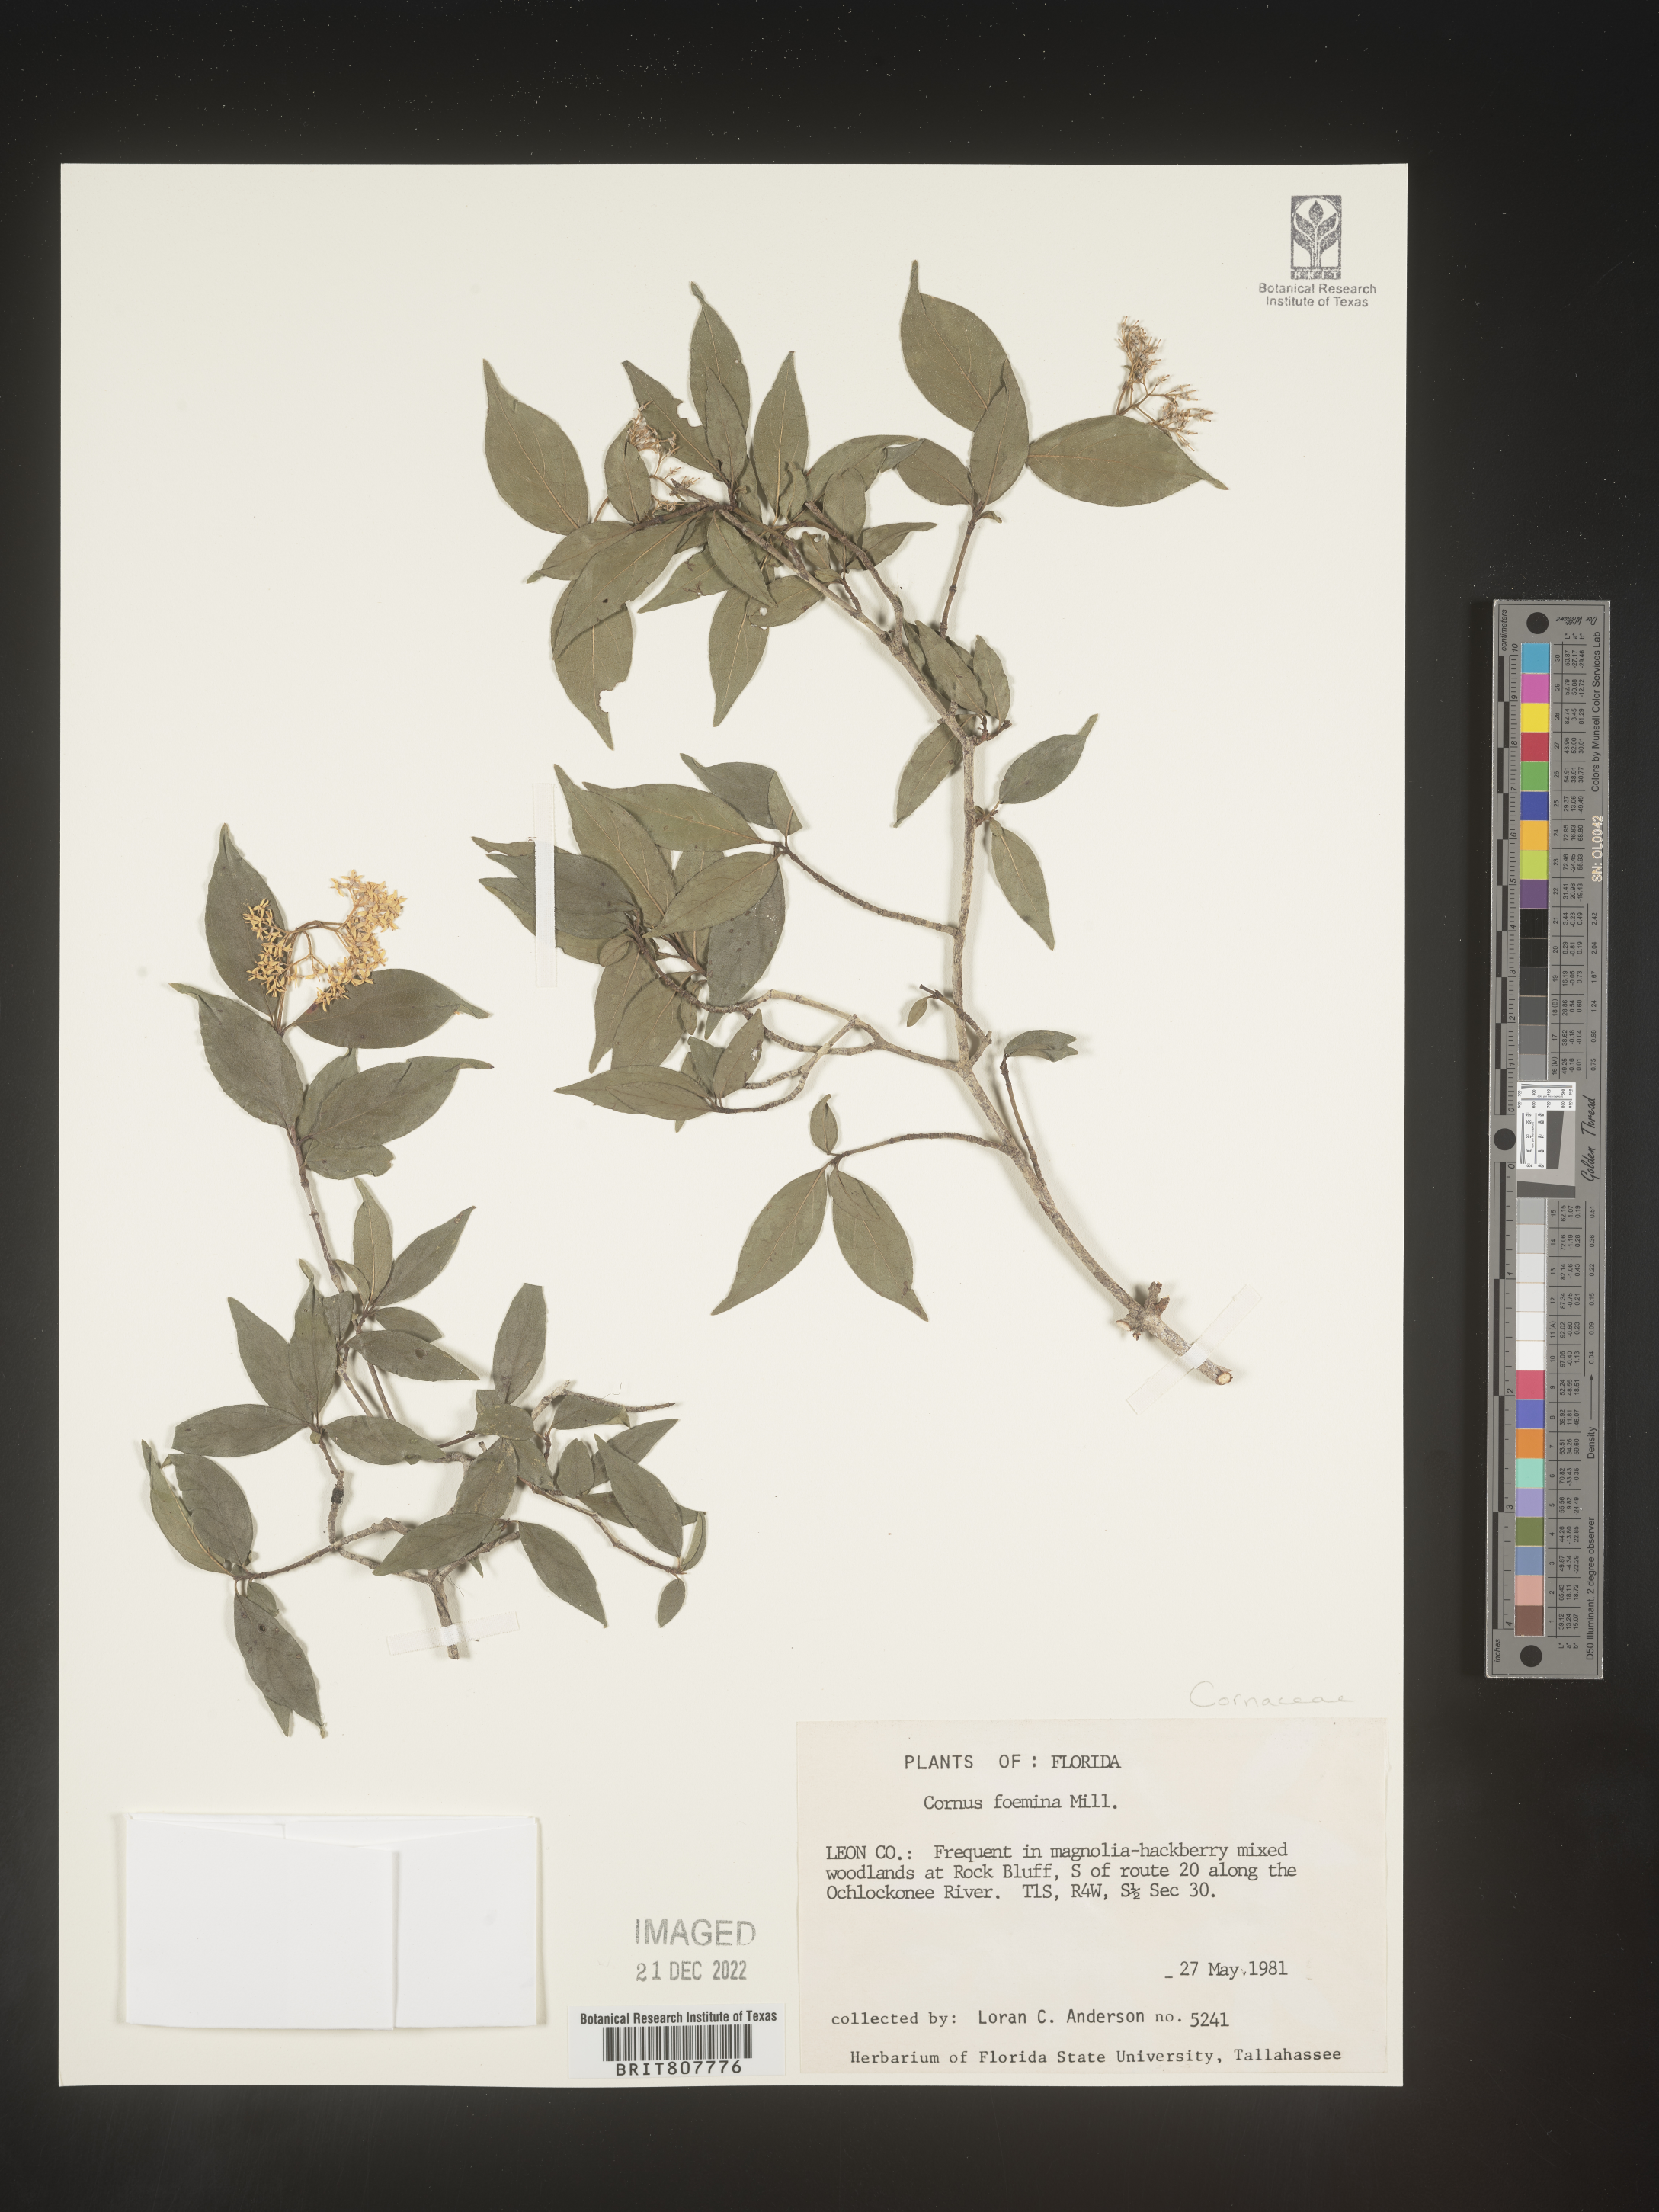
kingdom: Plantae
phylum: Tracheophyta
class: Magnoliopsida
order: Cornales
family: Cornaceae
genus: Cornus
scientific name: Cornus foemina
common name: Swamp dogwood
